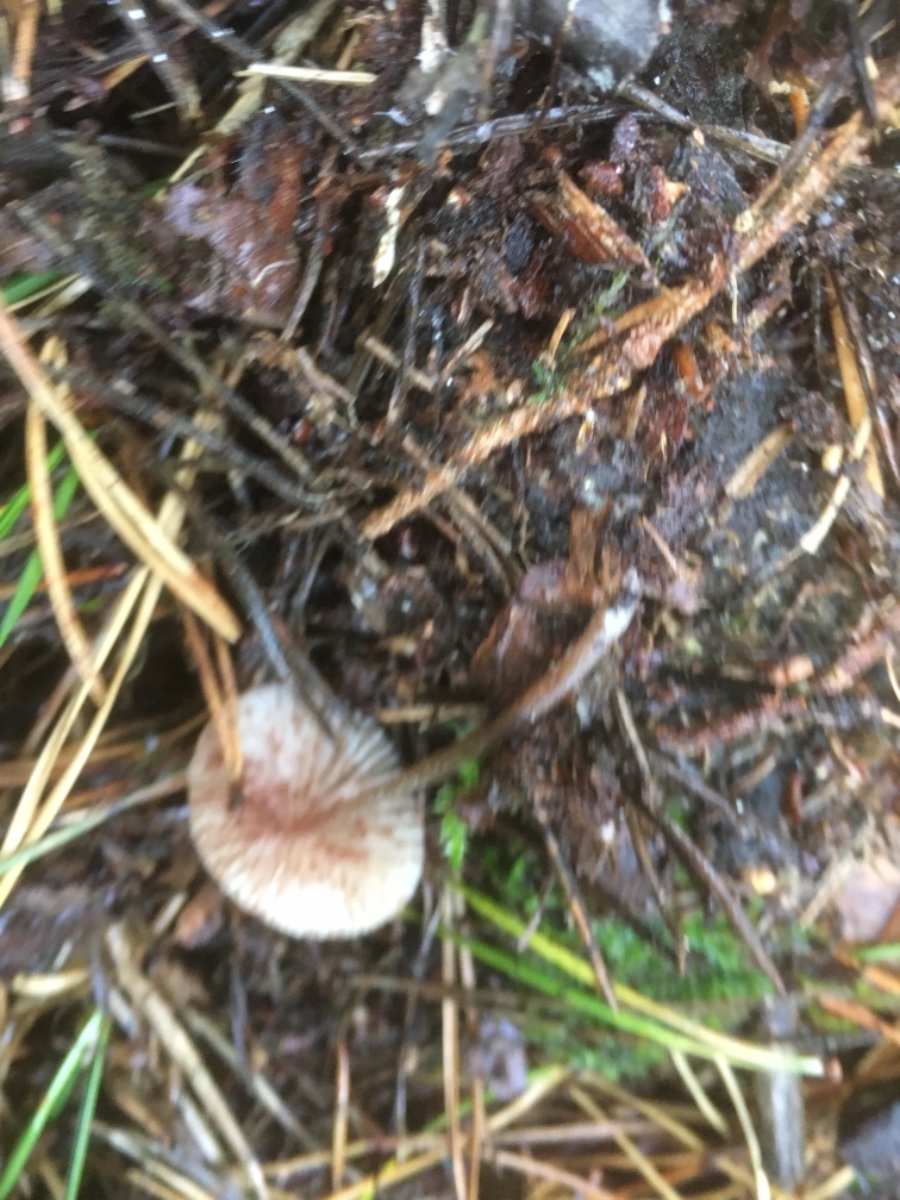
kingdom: Fungi
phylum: Basidiomycota
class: Agaricomycetes
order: Agaricales
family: Mycenaceae
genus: Mycena
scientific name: Mycena
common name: huesvamp
